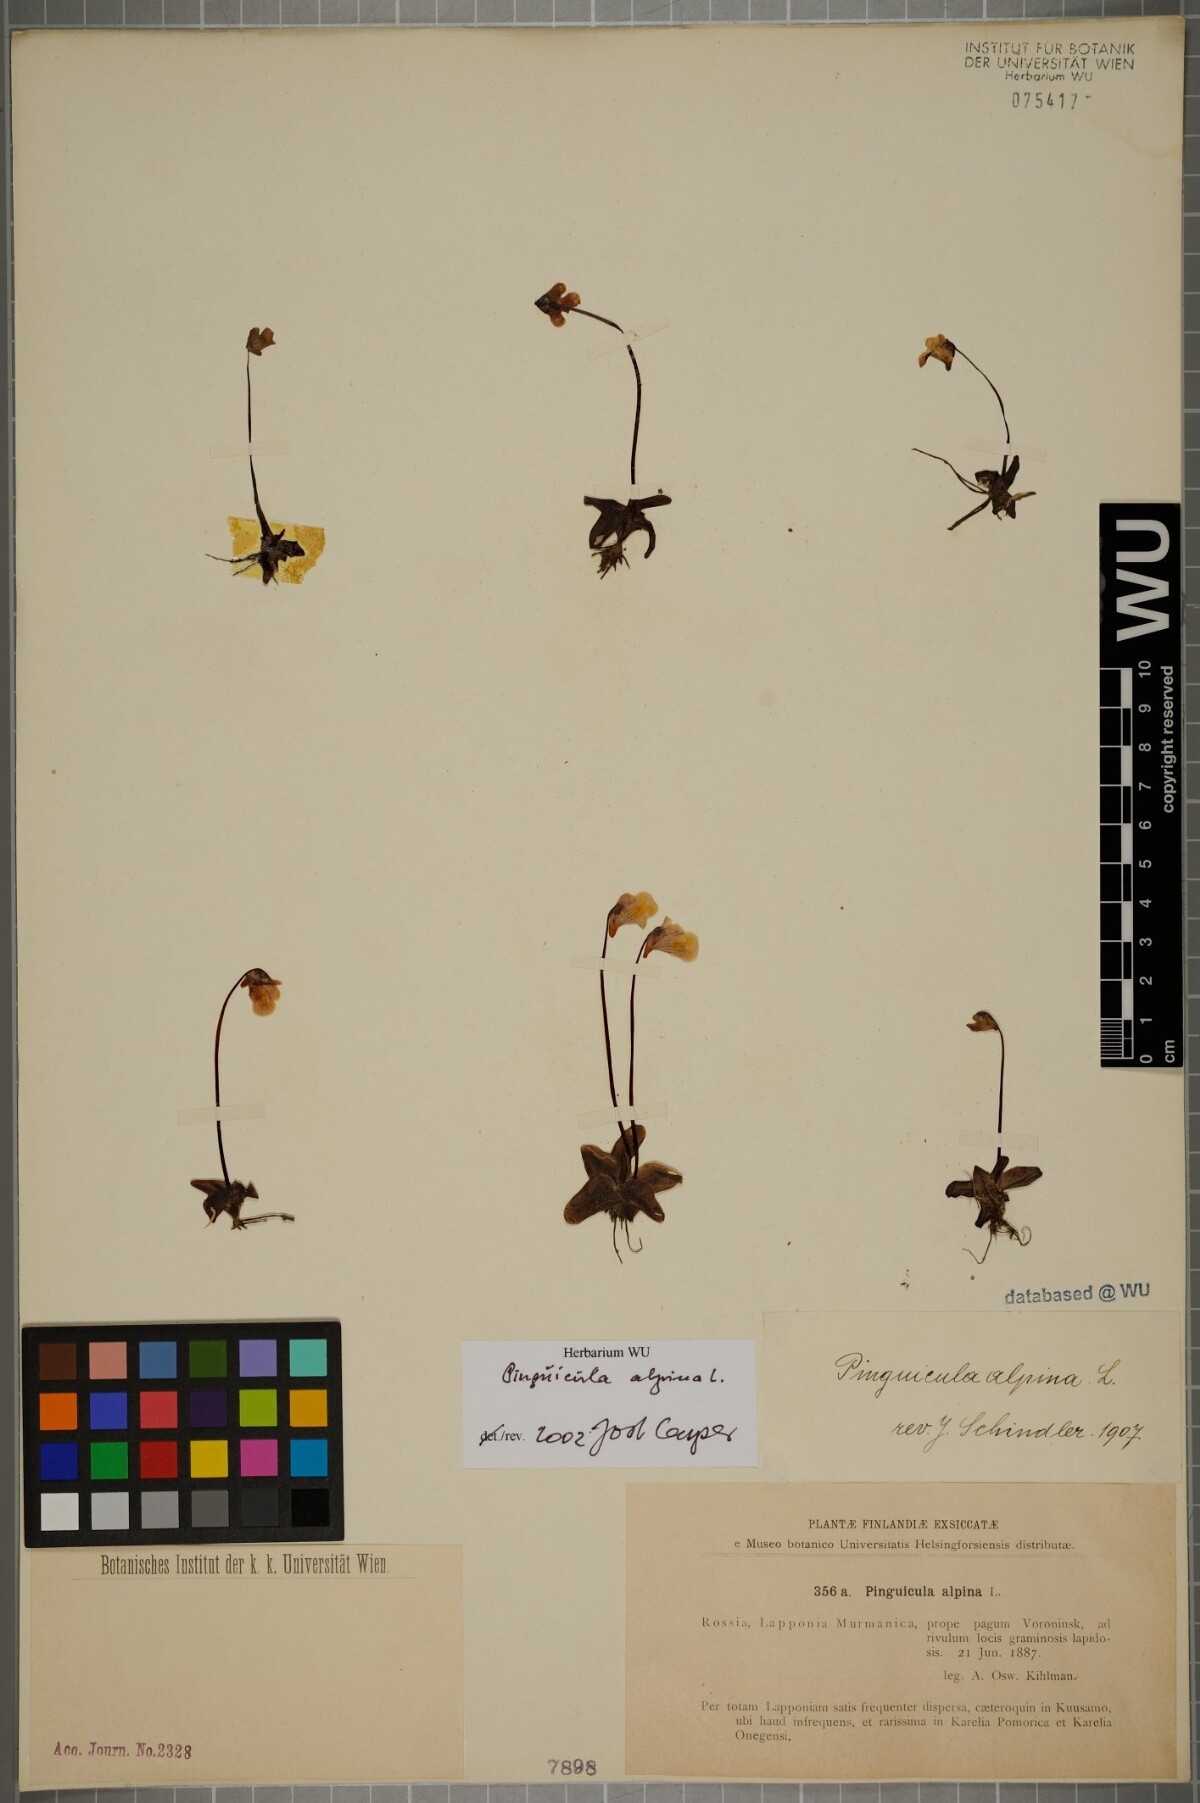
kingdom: Plantae
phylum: Tracheophyta
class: Magnoliopsida
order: Lamiales
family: Lentibulariaceae
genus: Pinguicula
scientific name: Pinguicula alpina
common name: Alpine butterwort
